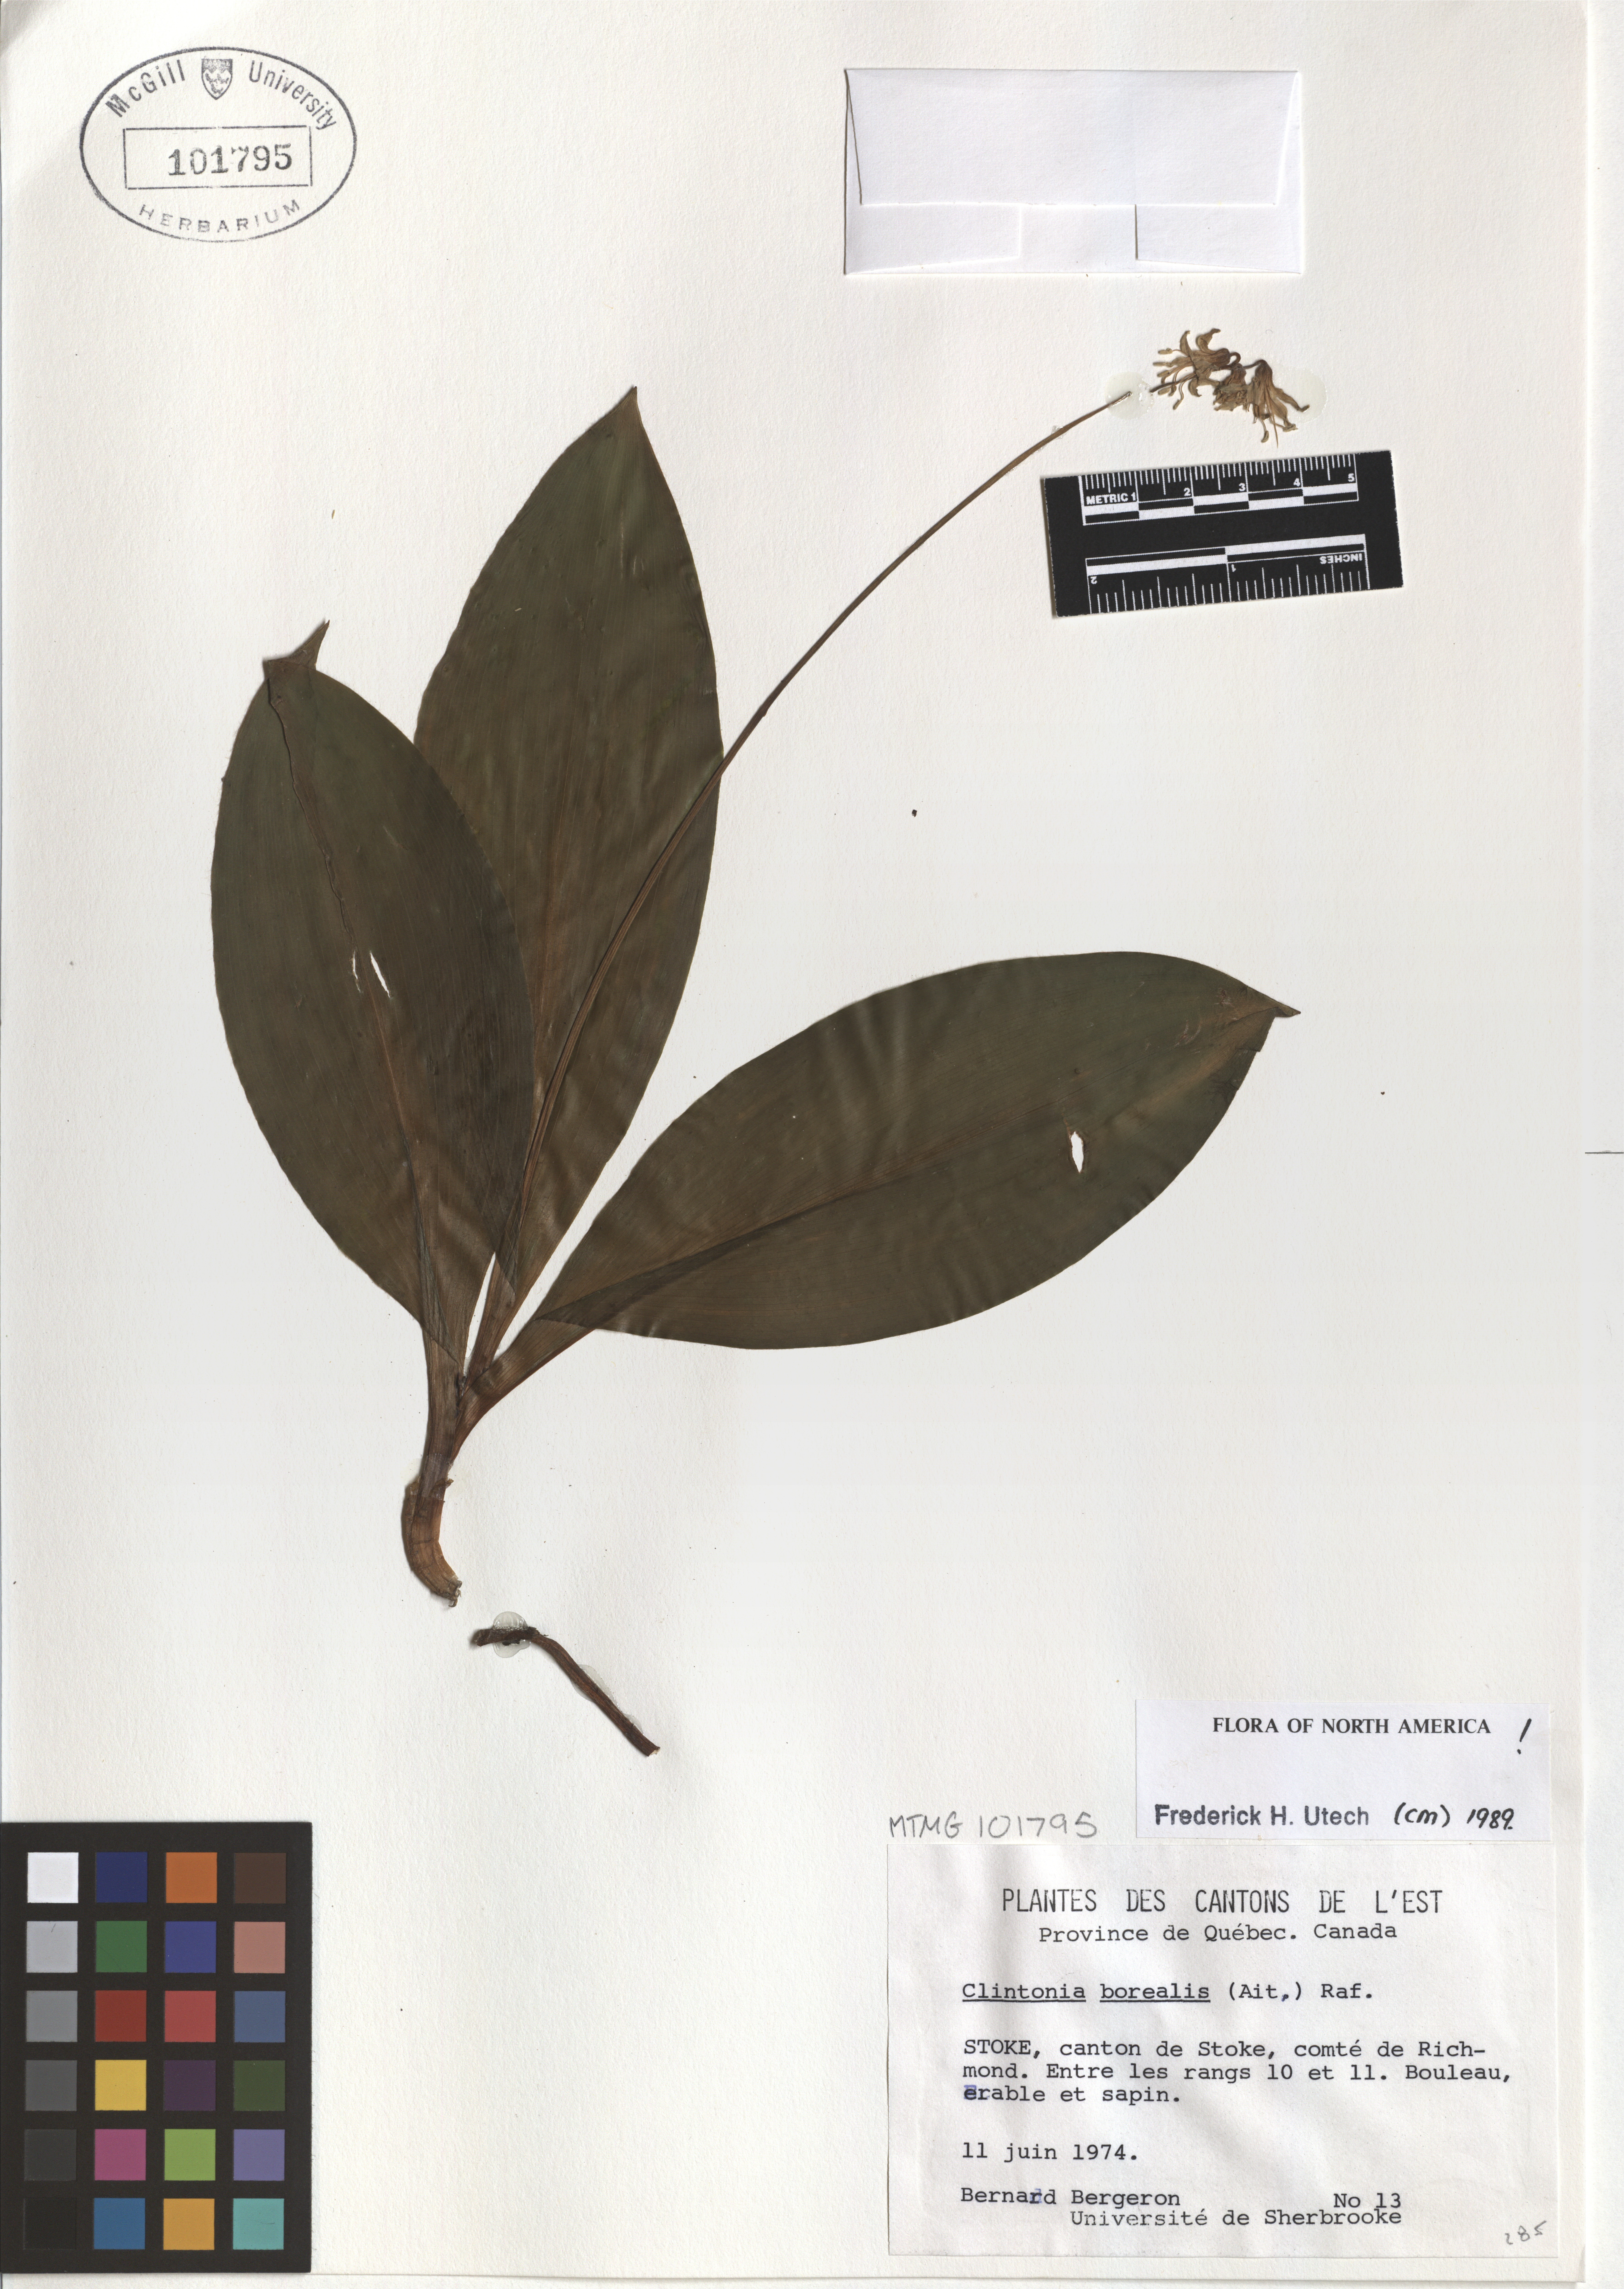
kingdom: Plantae
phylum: Tracheophyta
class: Liliopsida
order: Liliales
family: Liliaceae
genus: Clintonia
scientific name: Clintonia borealis
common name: Yellow clintonia
